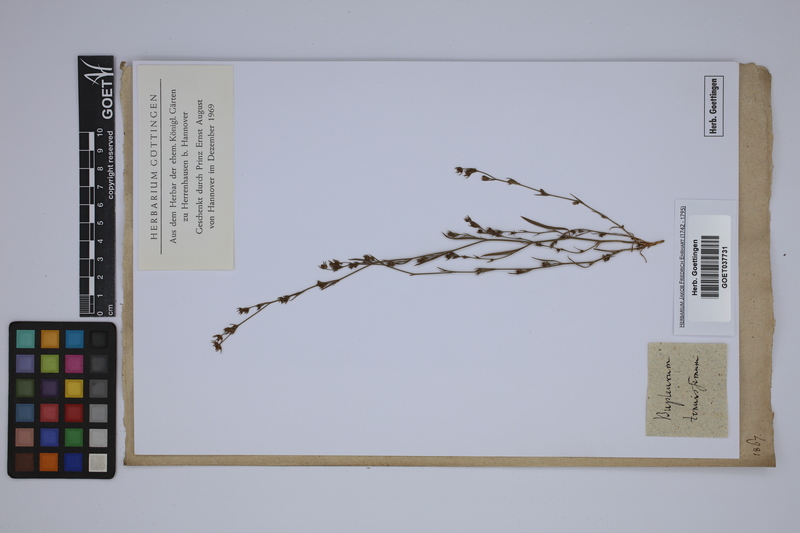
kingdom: Plantae
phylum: Tracheophyta
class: Magnoliopsida
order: Apiales
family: Apiaceae
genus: Bupleurum
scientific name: Bupleurum tenuissimum
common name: Slender hare's-ear
